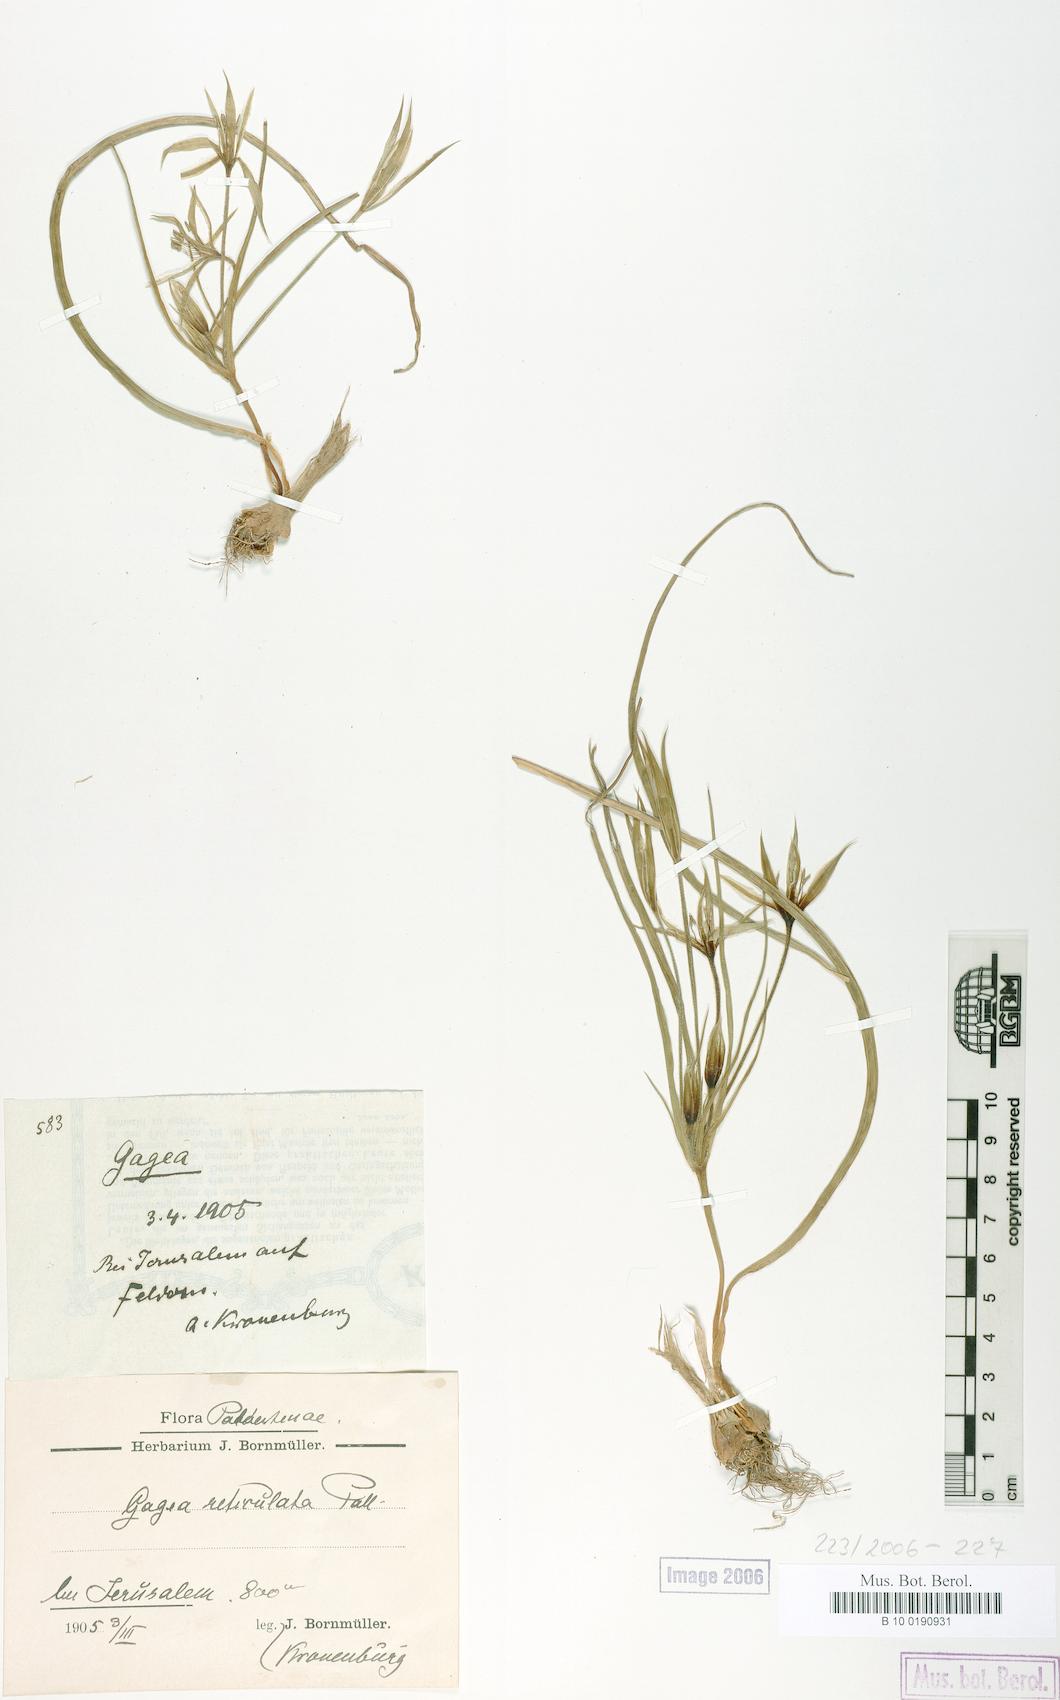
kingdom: Plantae
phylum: Tracheophyta
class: Liliopsida
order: Liliales
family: Liliaceae
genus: Gagea
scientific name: Gagea reticulata
